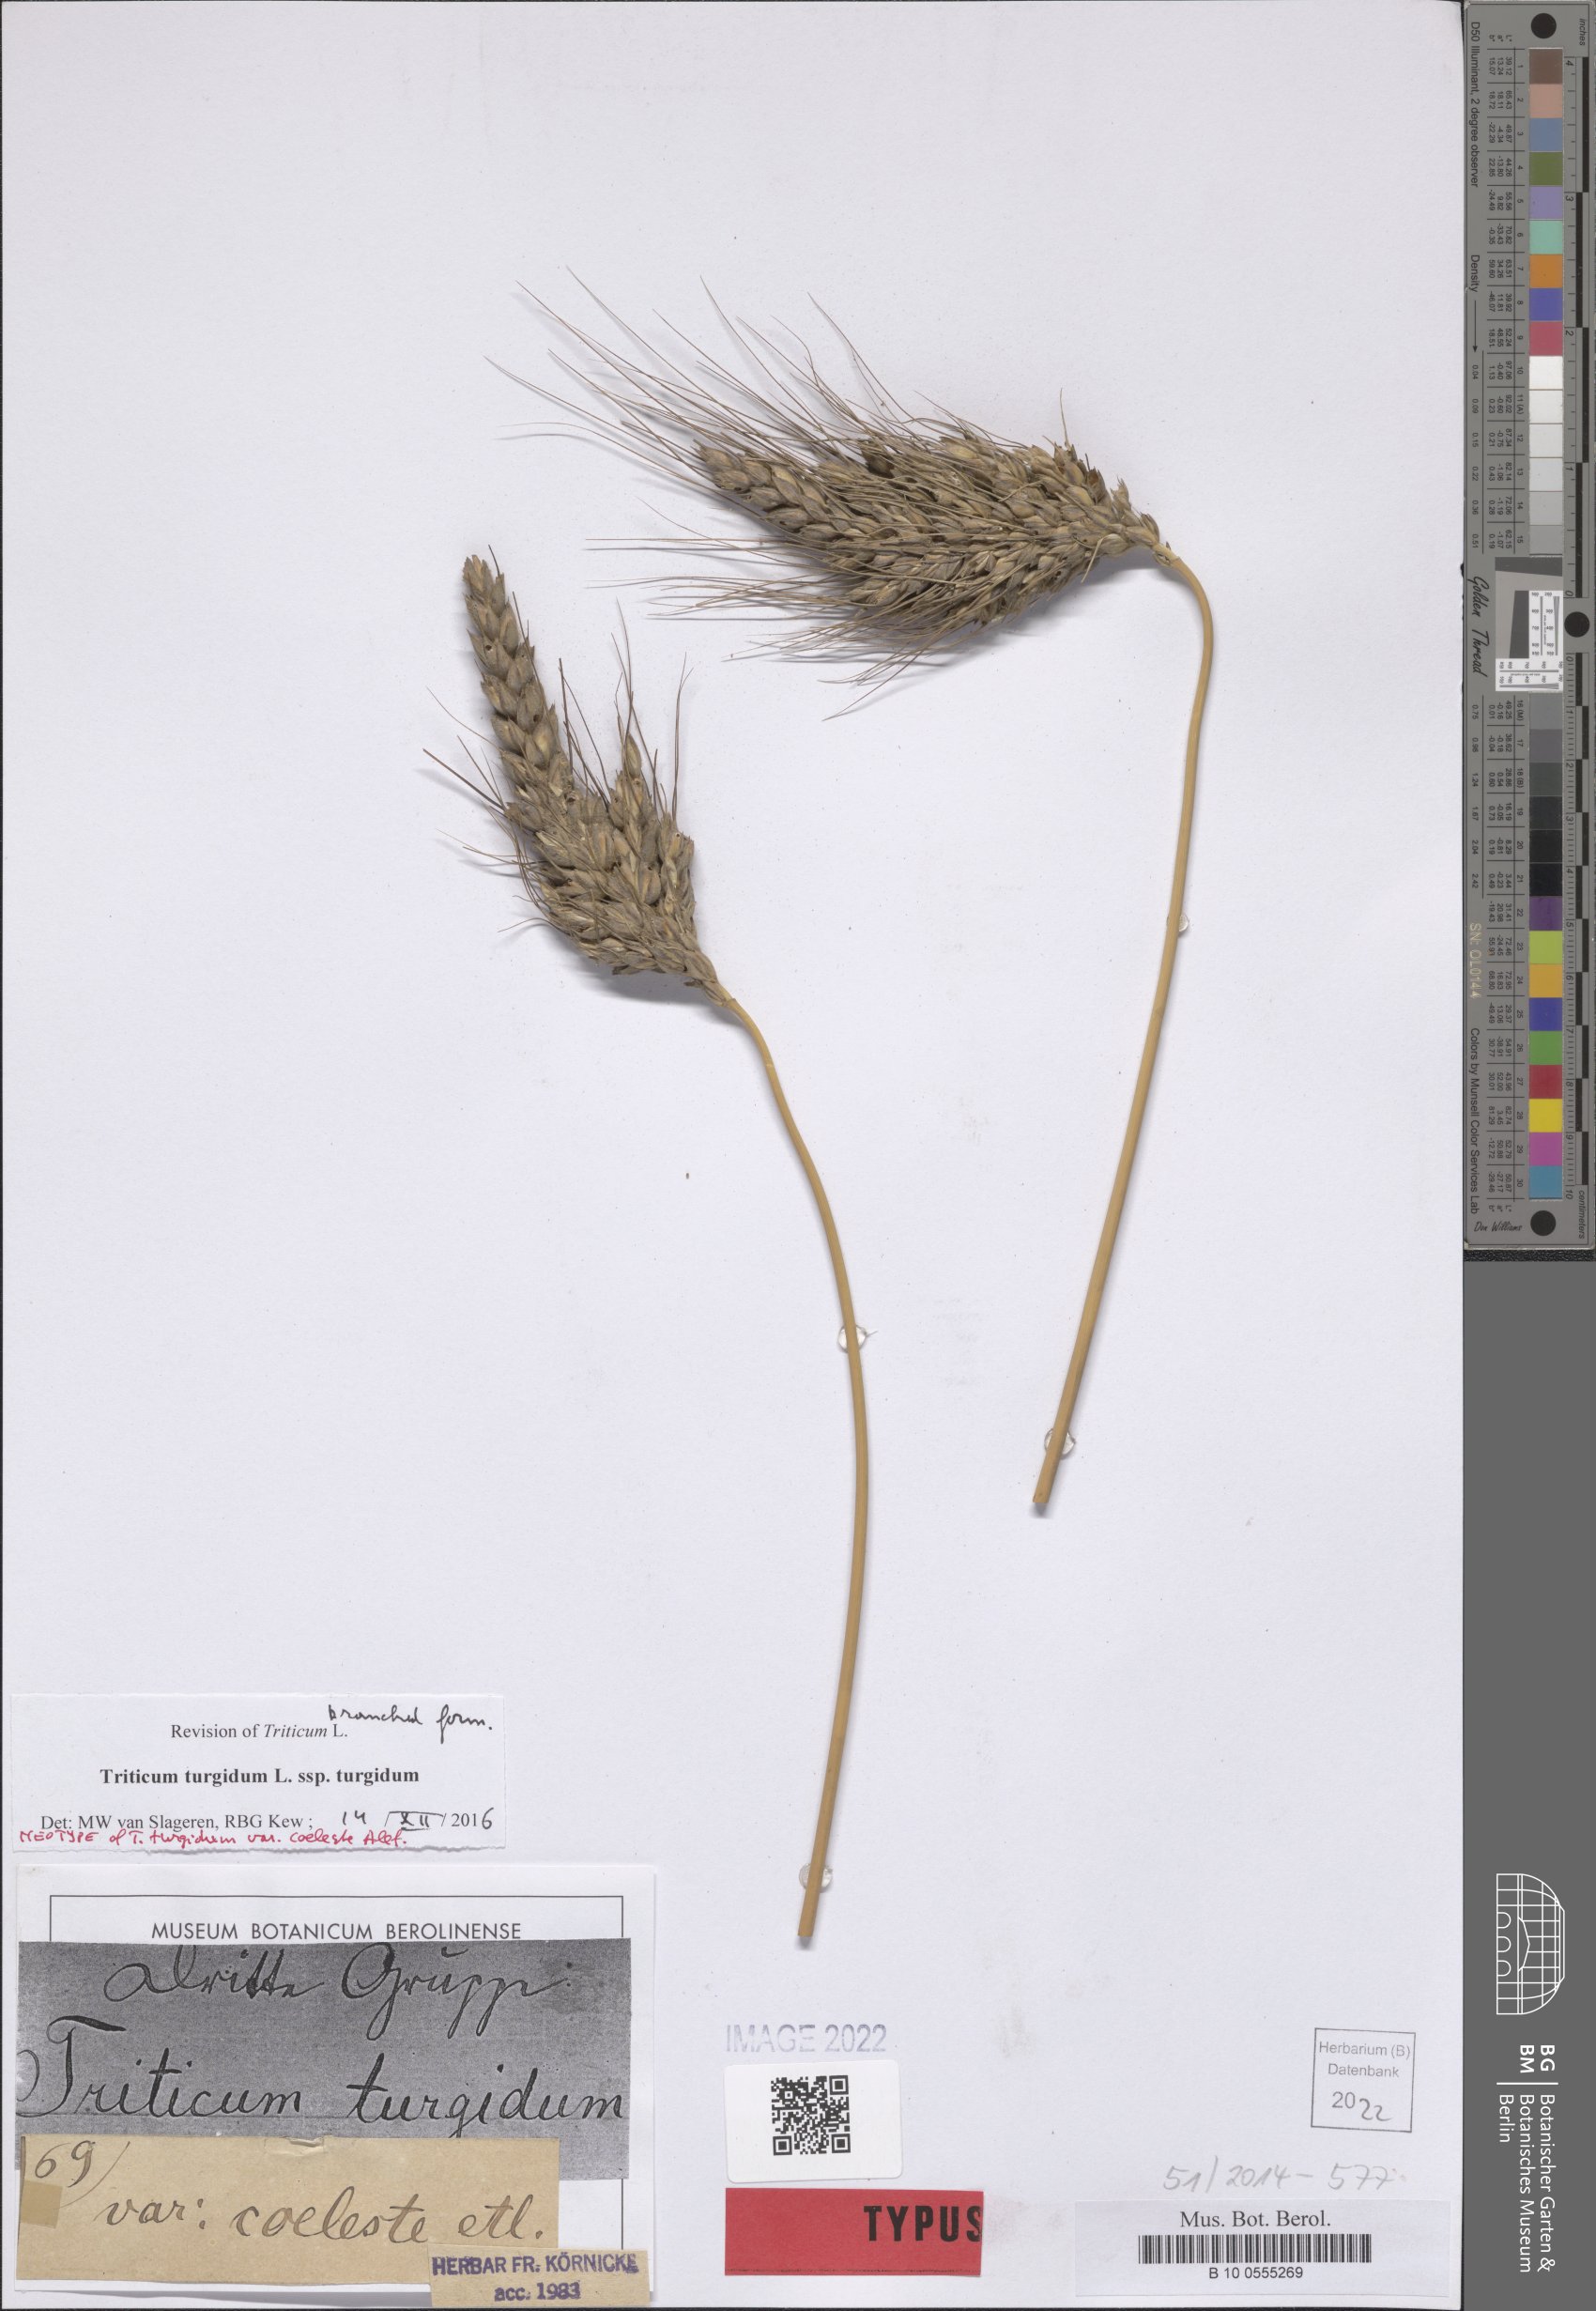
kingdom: Plantae
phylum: Tracheophyta
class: Liliopsida
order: Poales
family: Poaceae
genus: Triticum
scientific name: Triticum turgidum
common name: Rivet wheat
